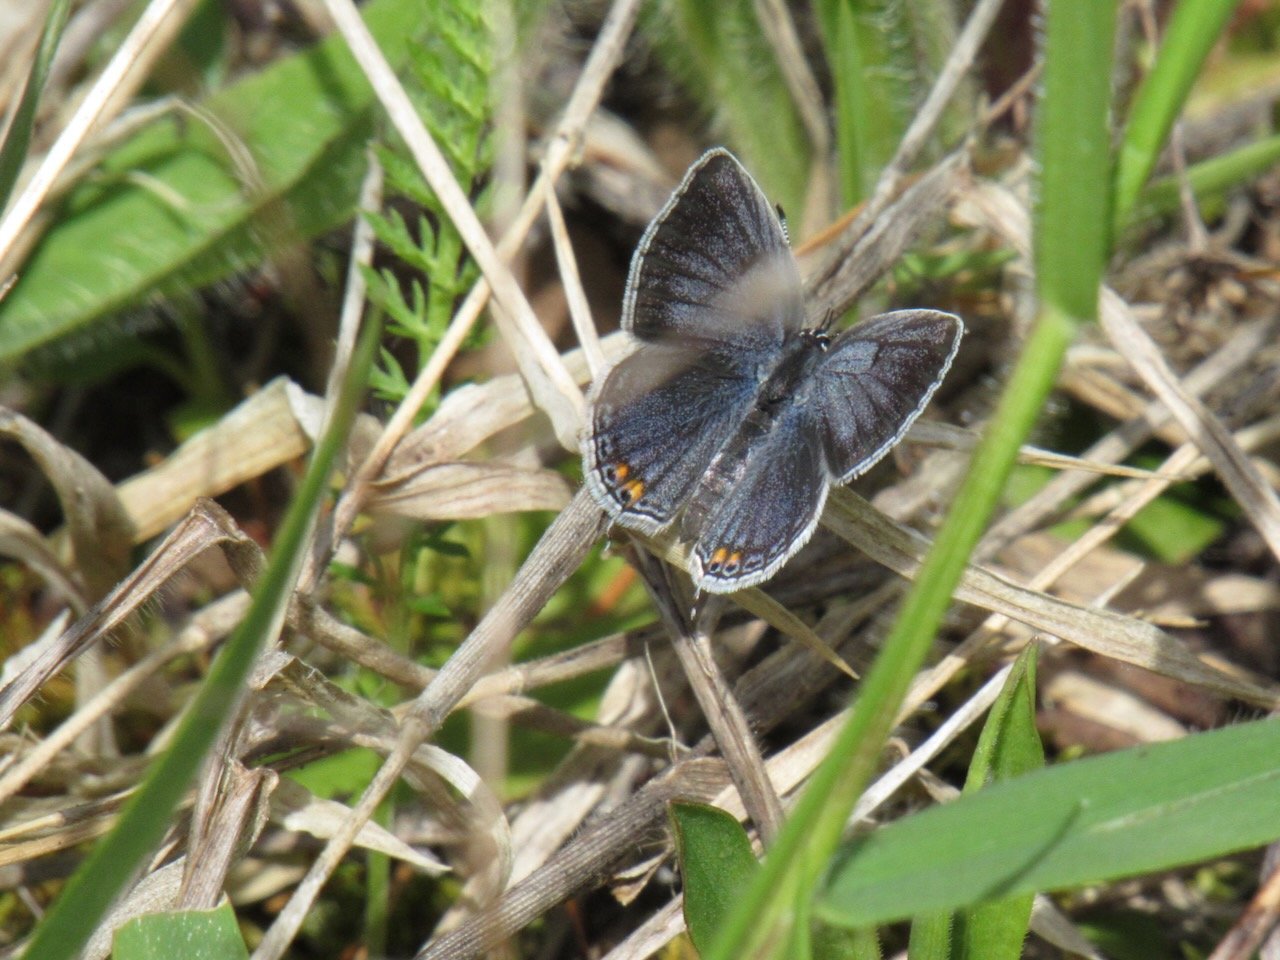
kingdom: Animalia
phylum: Arthropoda
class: Insecta
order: Lepidoptera
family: Lycaenidae
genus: Elkalyce
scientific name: Elkalyce comyntas
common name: Eastern Tailed-Blue
